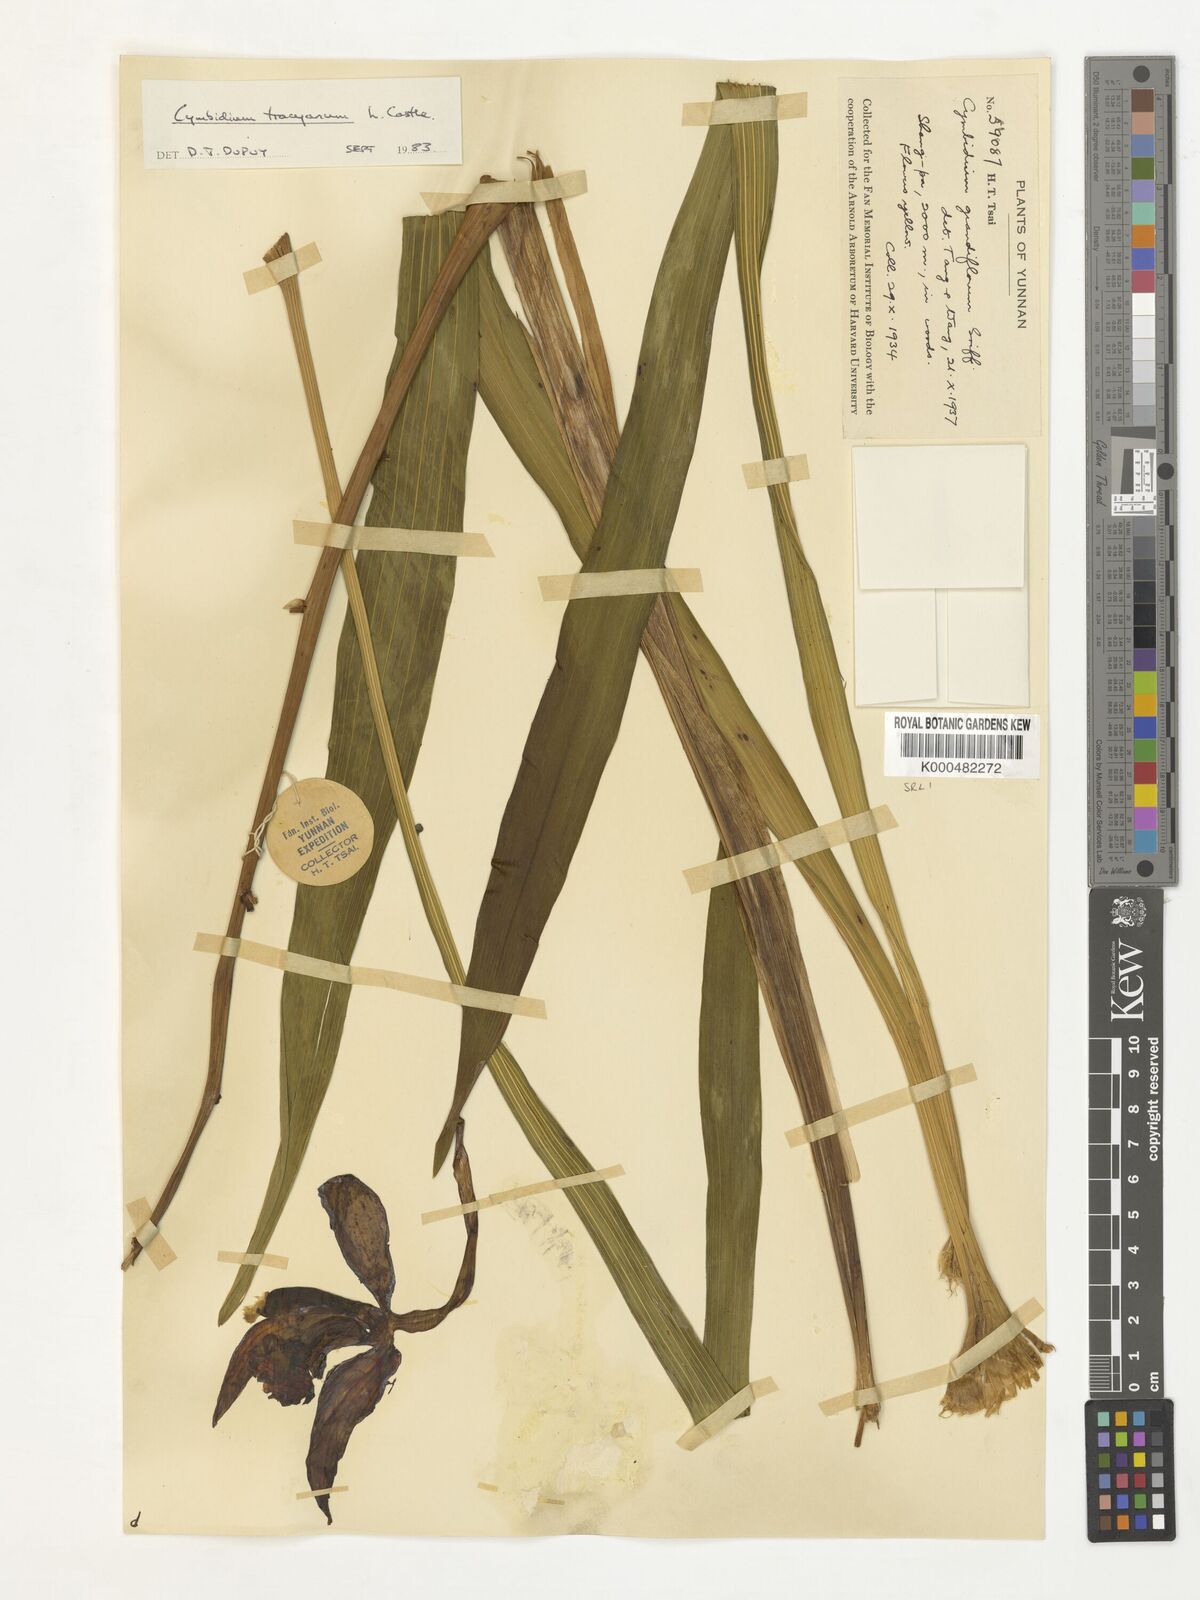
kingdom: Plantae
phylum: Tracheophyta
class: Liliopsida
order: Asparagales
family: Orchidaceae
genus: Cymbidium
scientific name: Cymbidium
